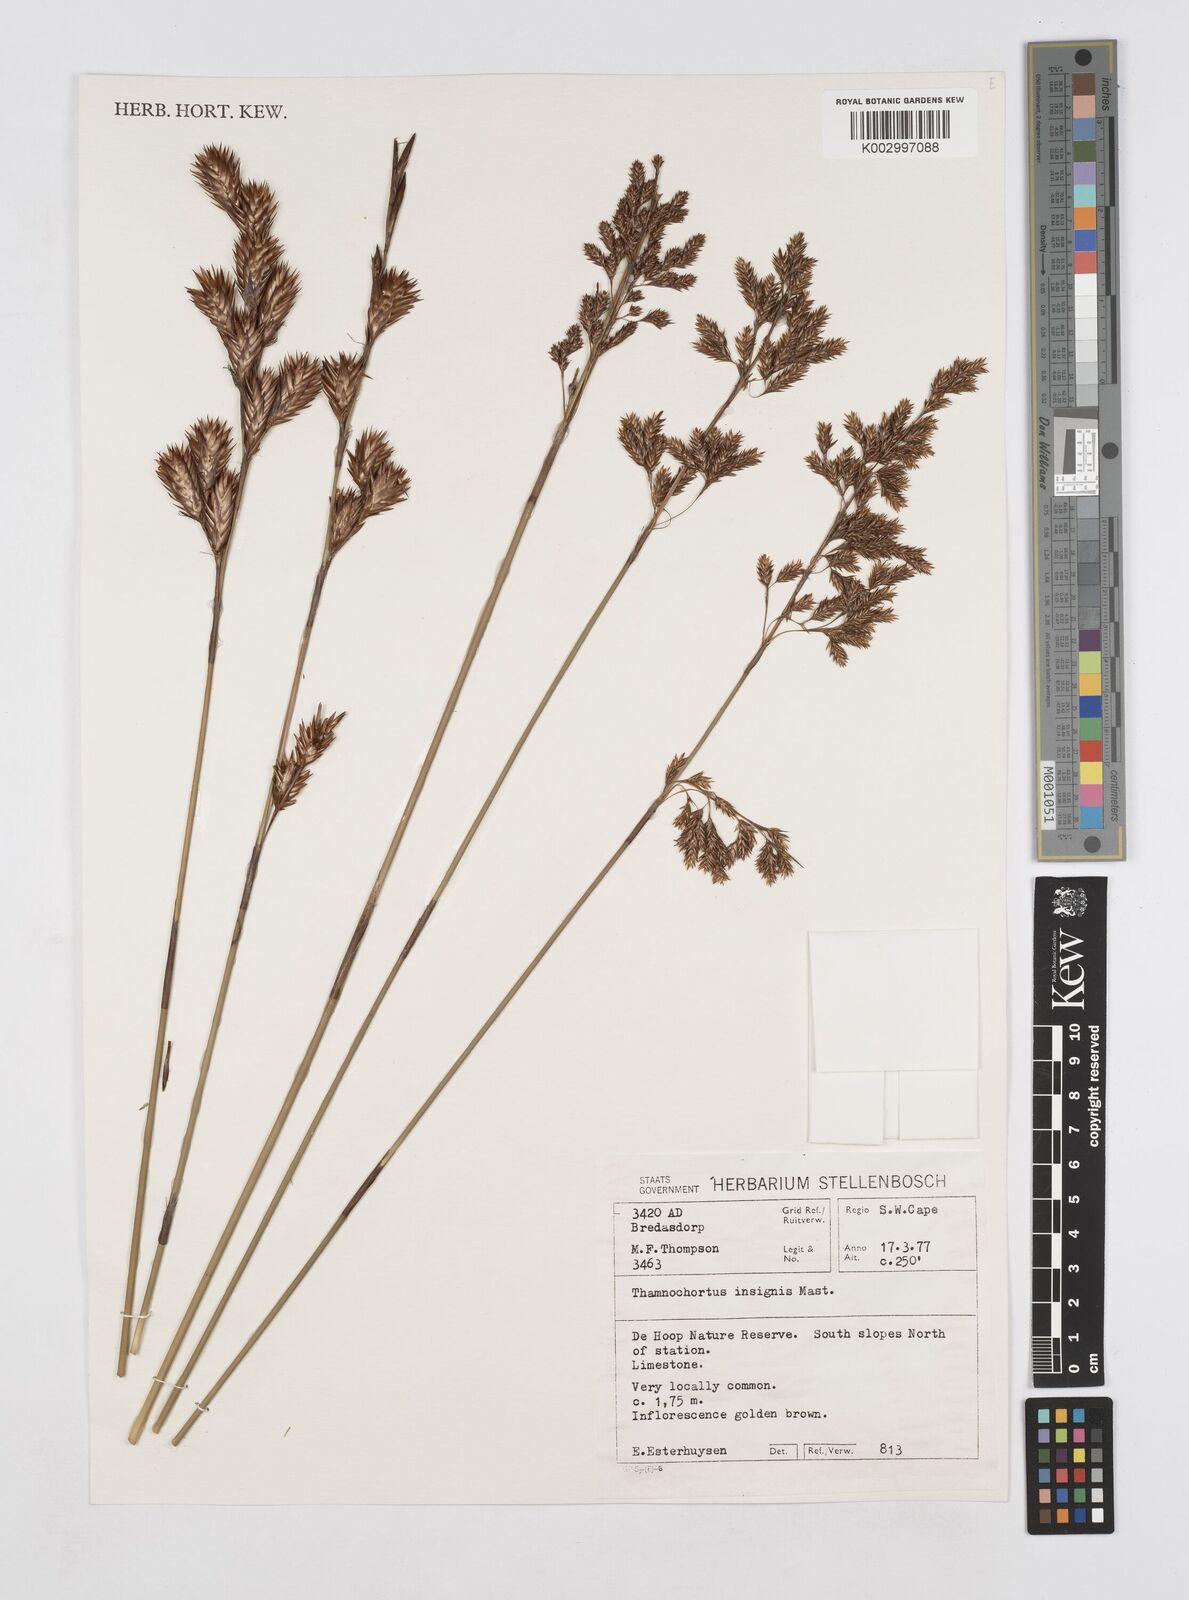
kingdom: Plantae
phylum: Tracheophyta
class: Liliopsida
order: Poales
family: Restionaceae
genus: Thamnochortus
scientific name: Thamnochortus insignis
